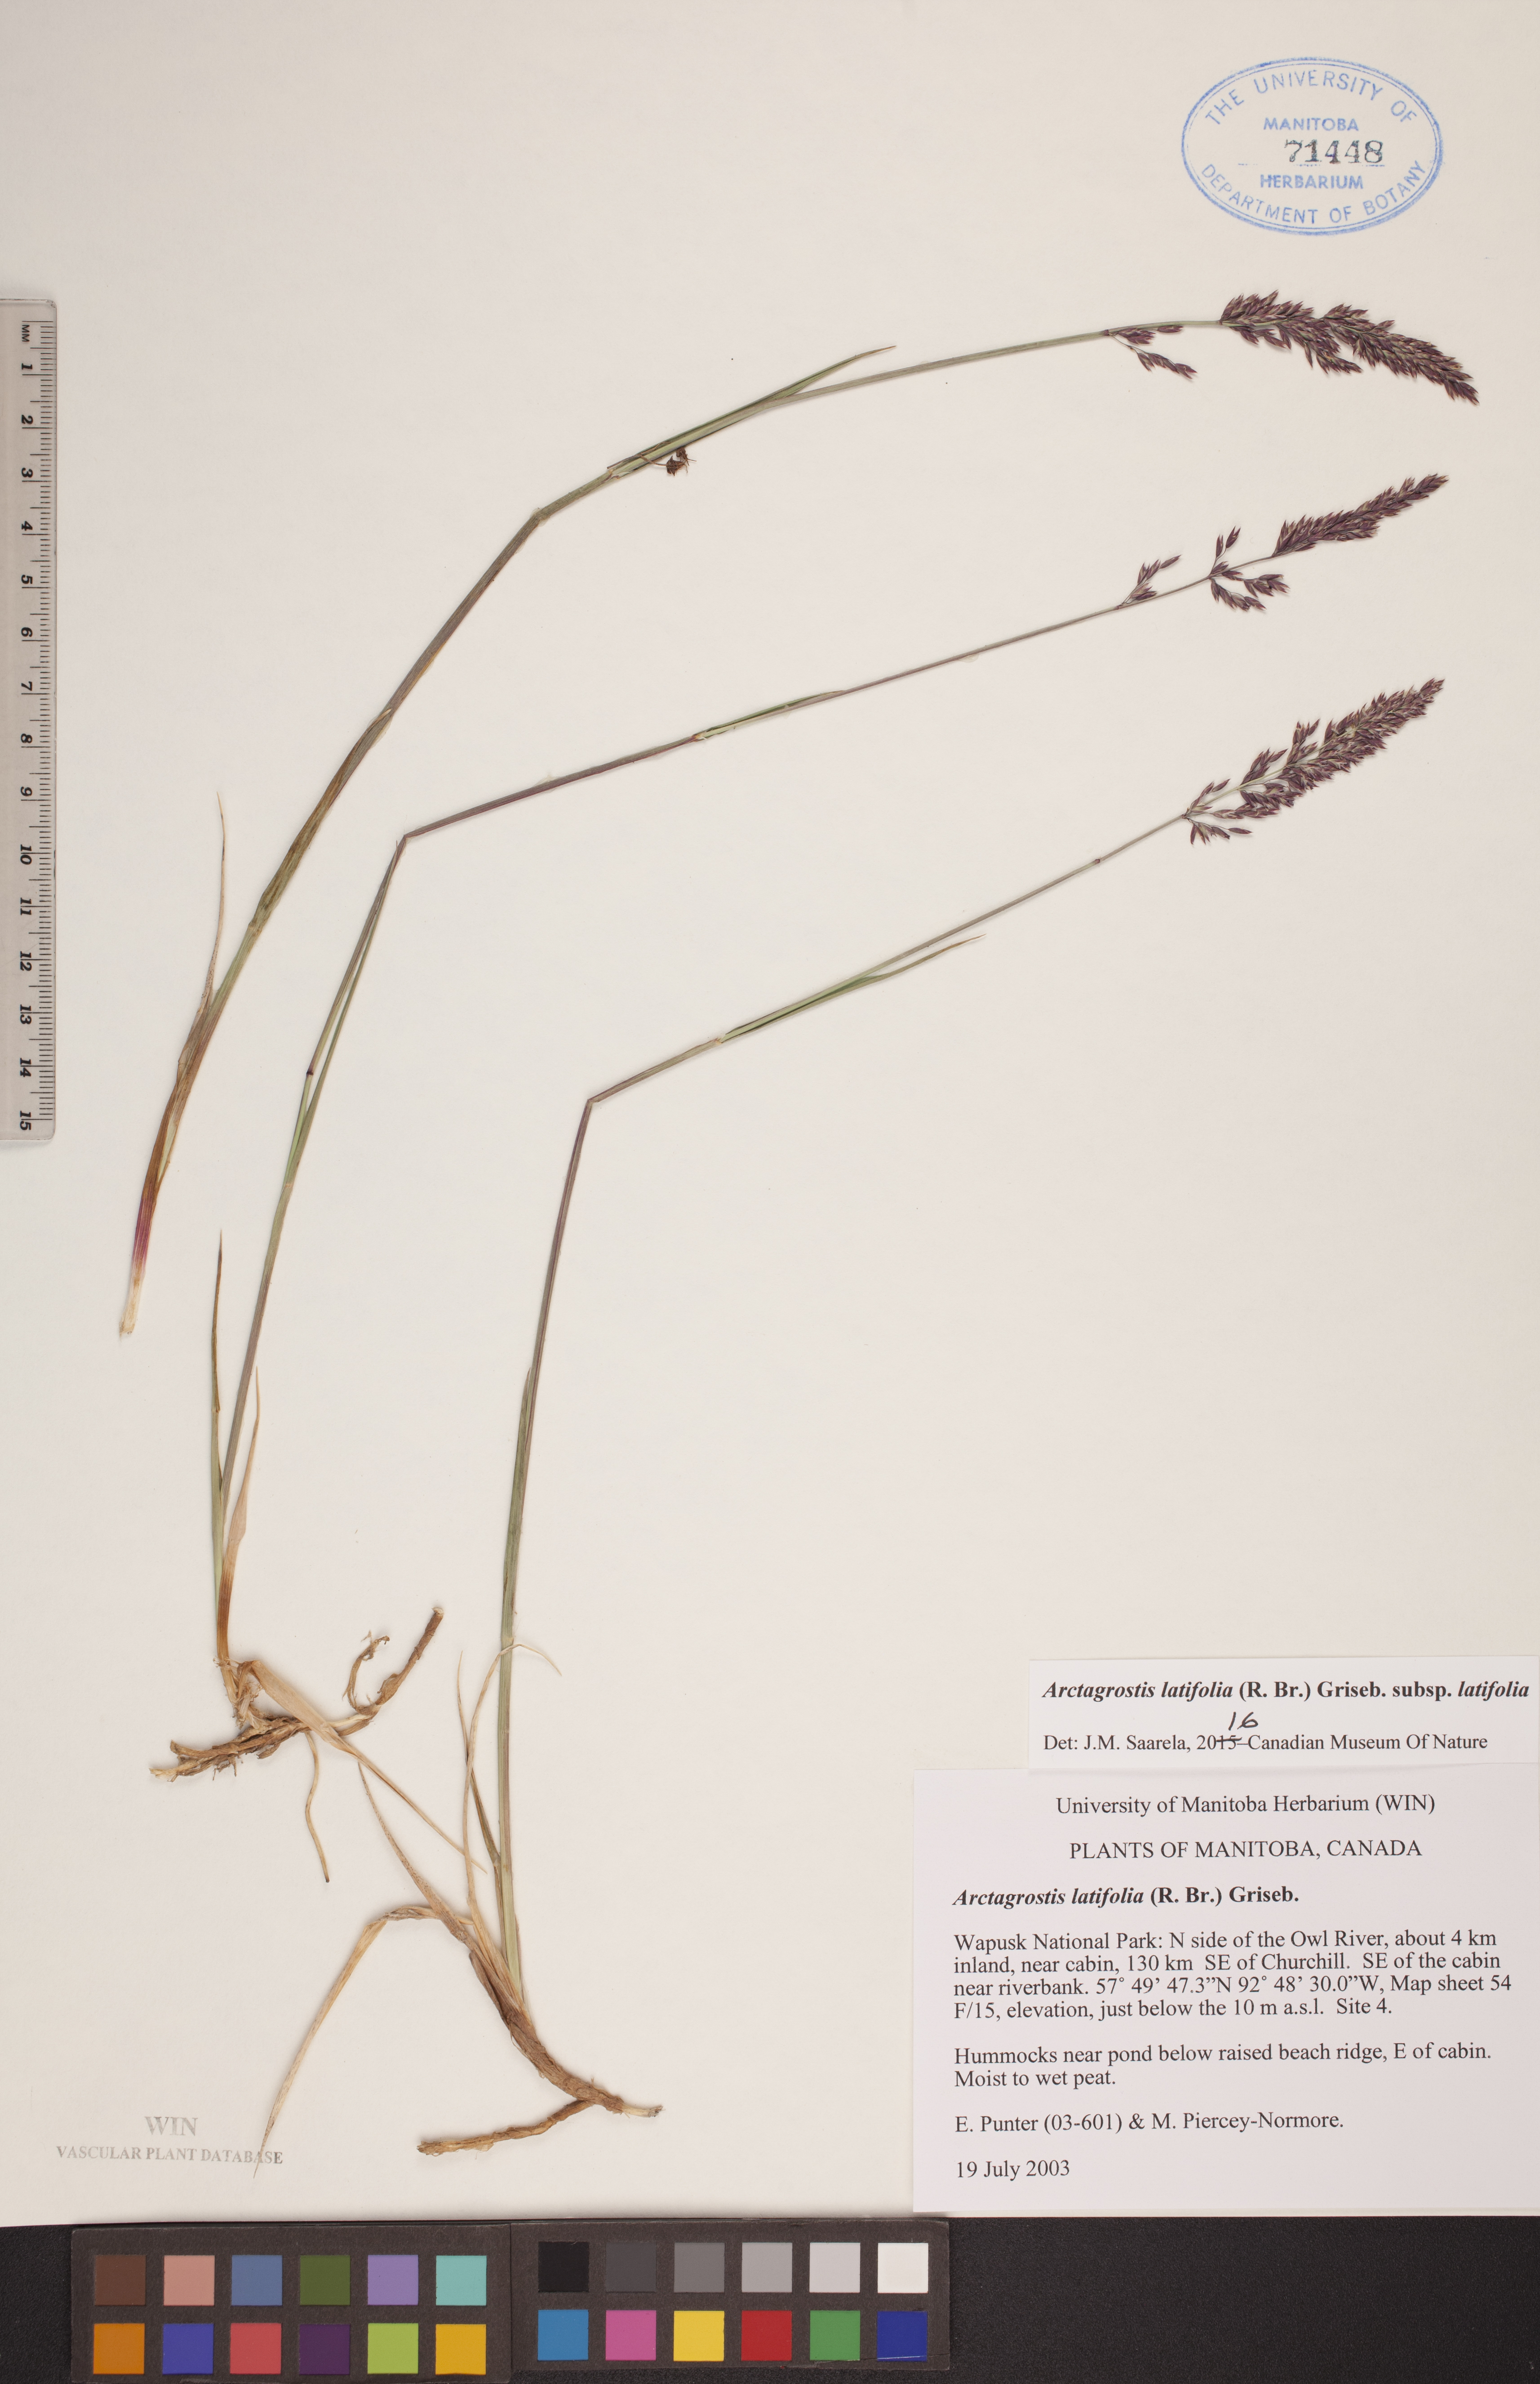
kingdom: Plantae
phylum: Tracheophyta
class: Liliopsida
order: Poales
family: Poaceae
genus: Arctagrostis
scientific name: Arctagrostis latifolia
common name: Arctic grass
